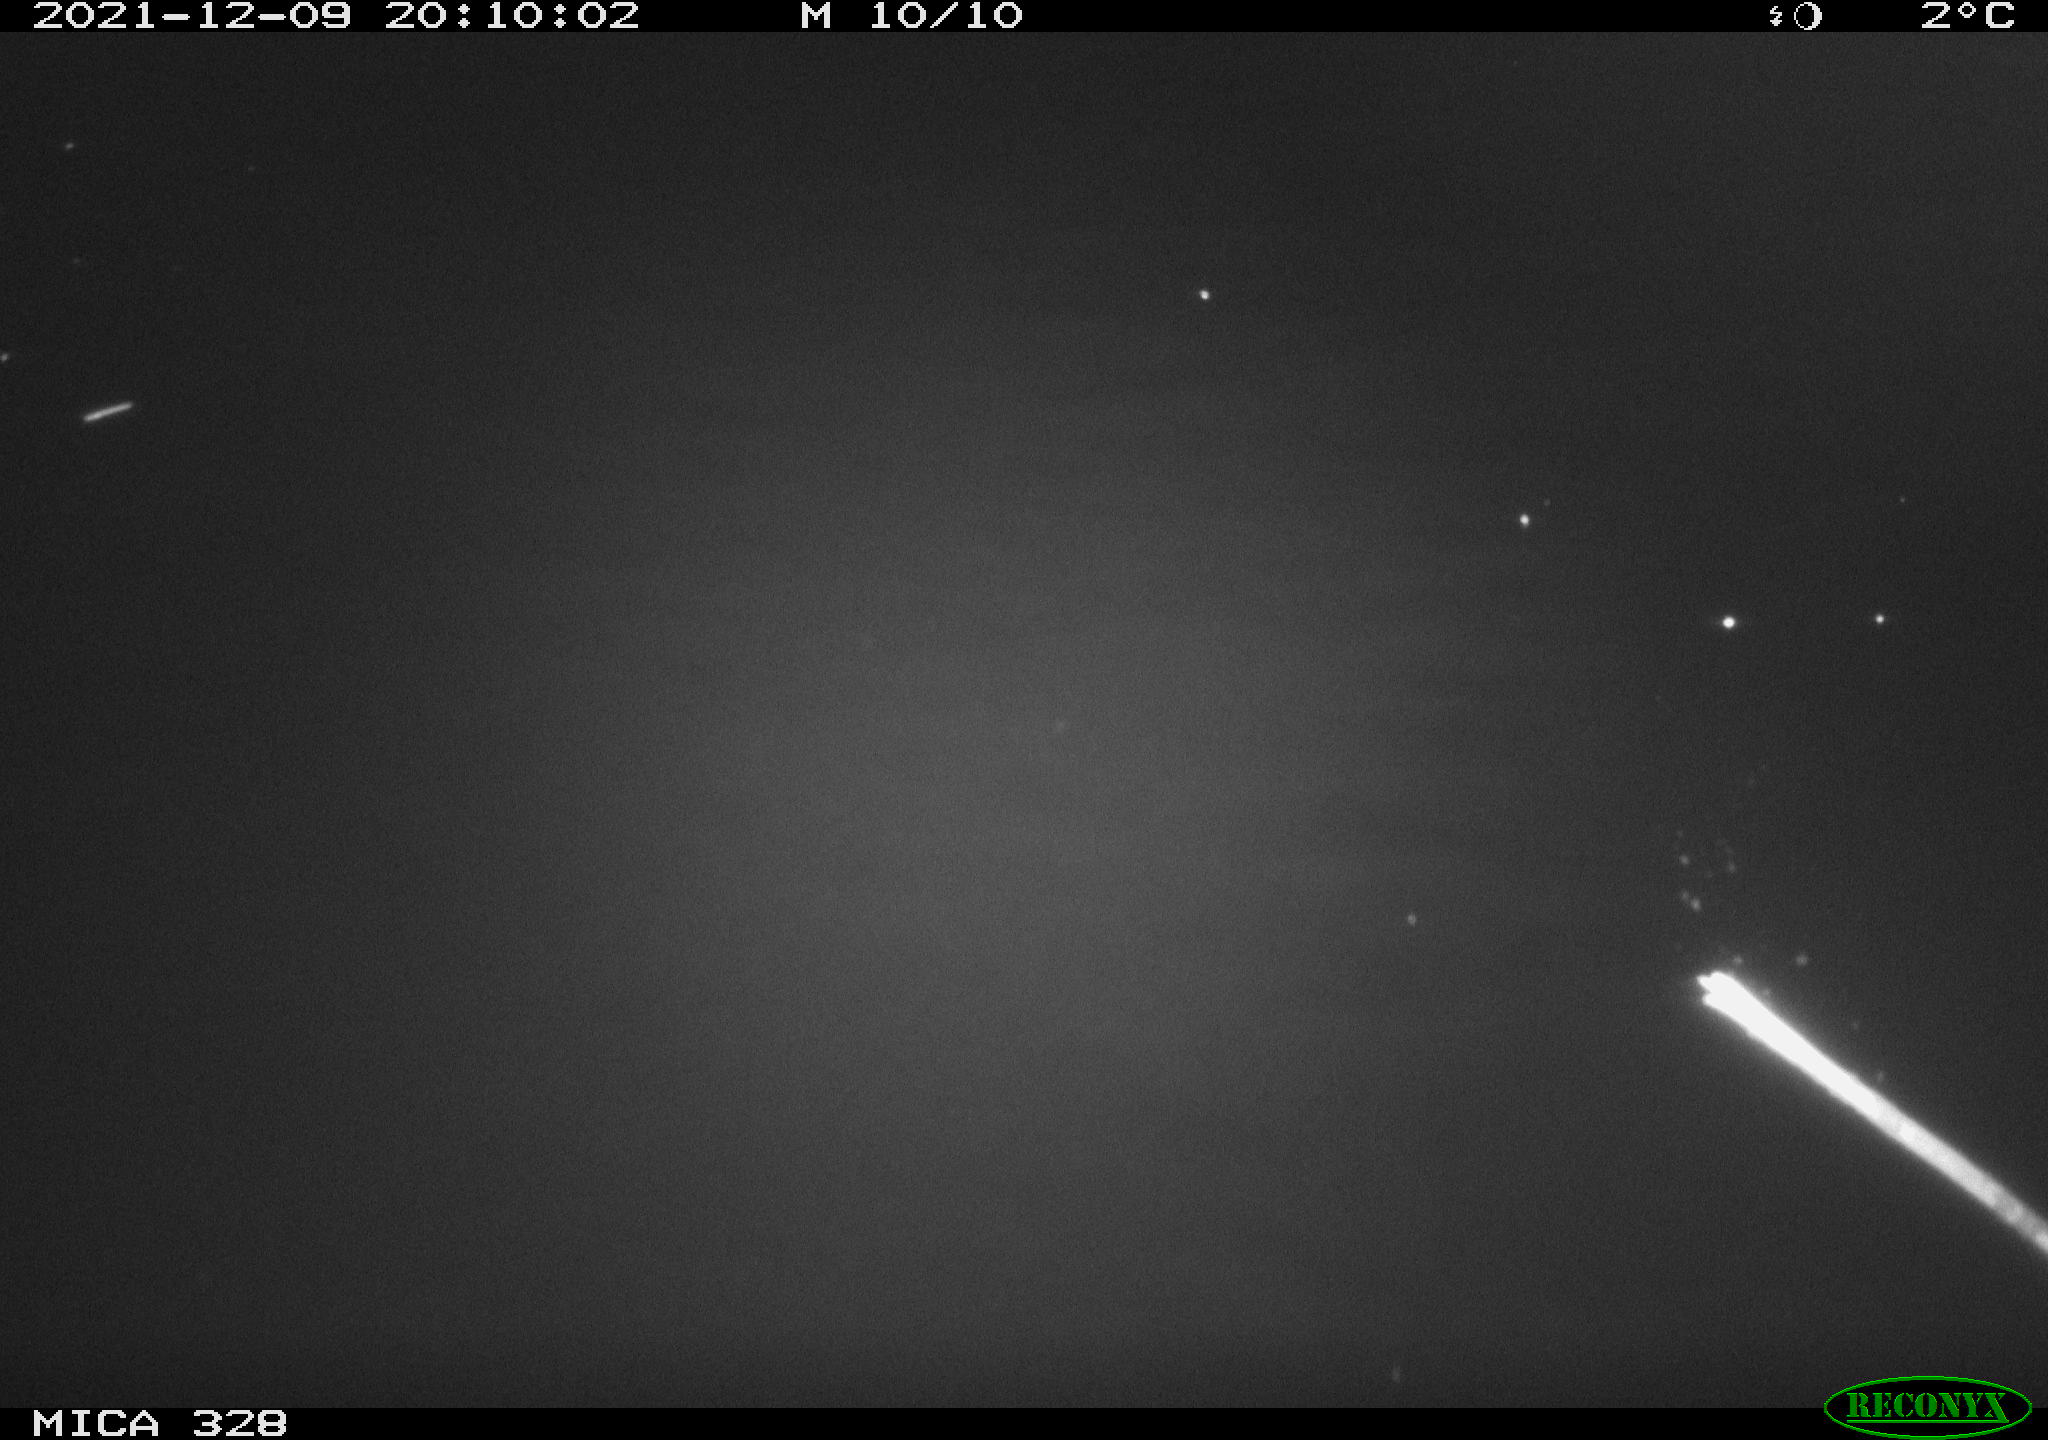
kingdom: Animalia
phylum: Chordata
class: Mammalia
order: Rodentia
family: Cricetidae
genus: Ondatra
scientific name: Ondatra zibethicus
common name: Muskrat
